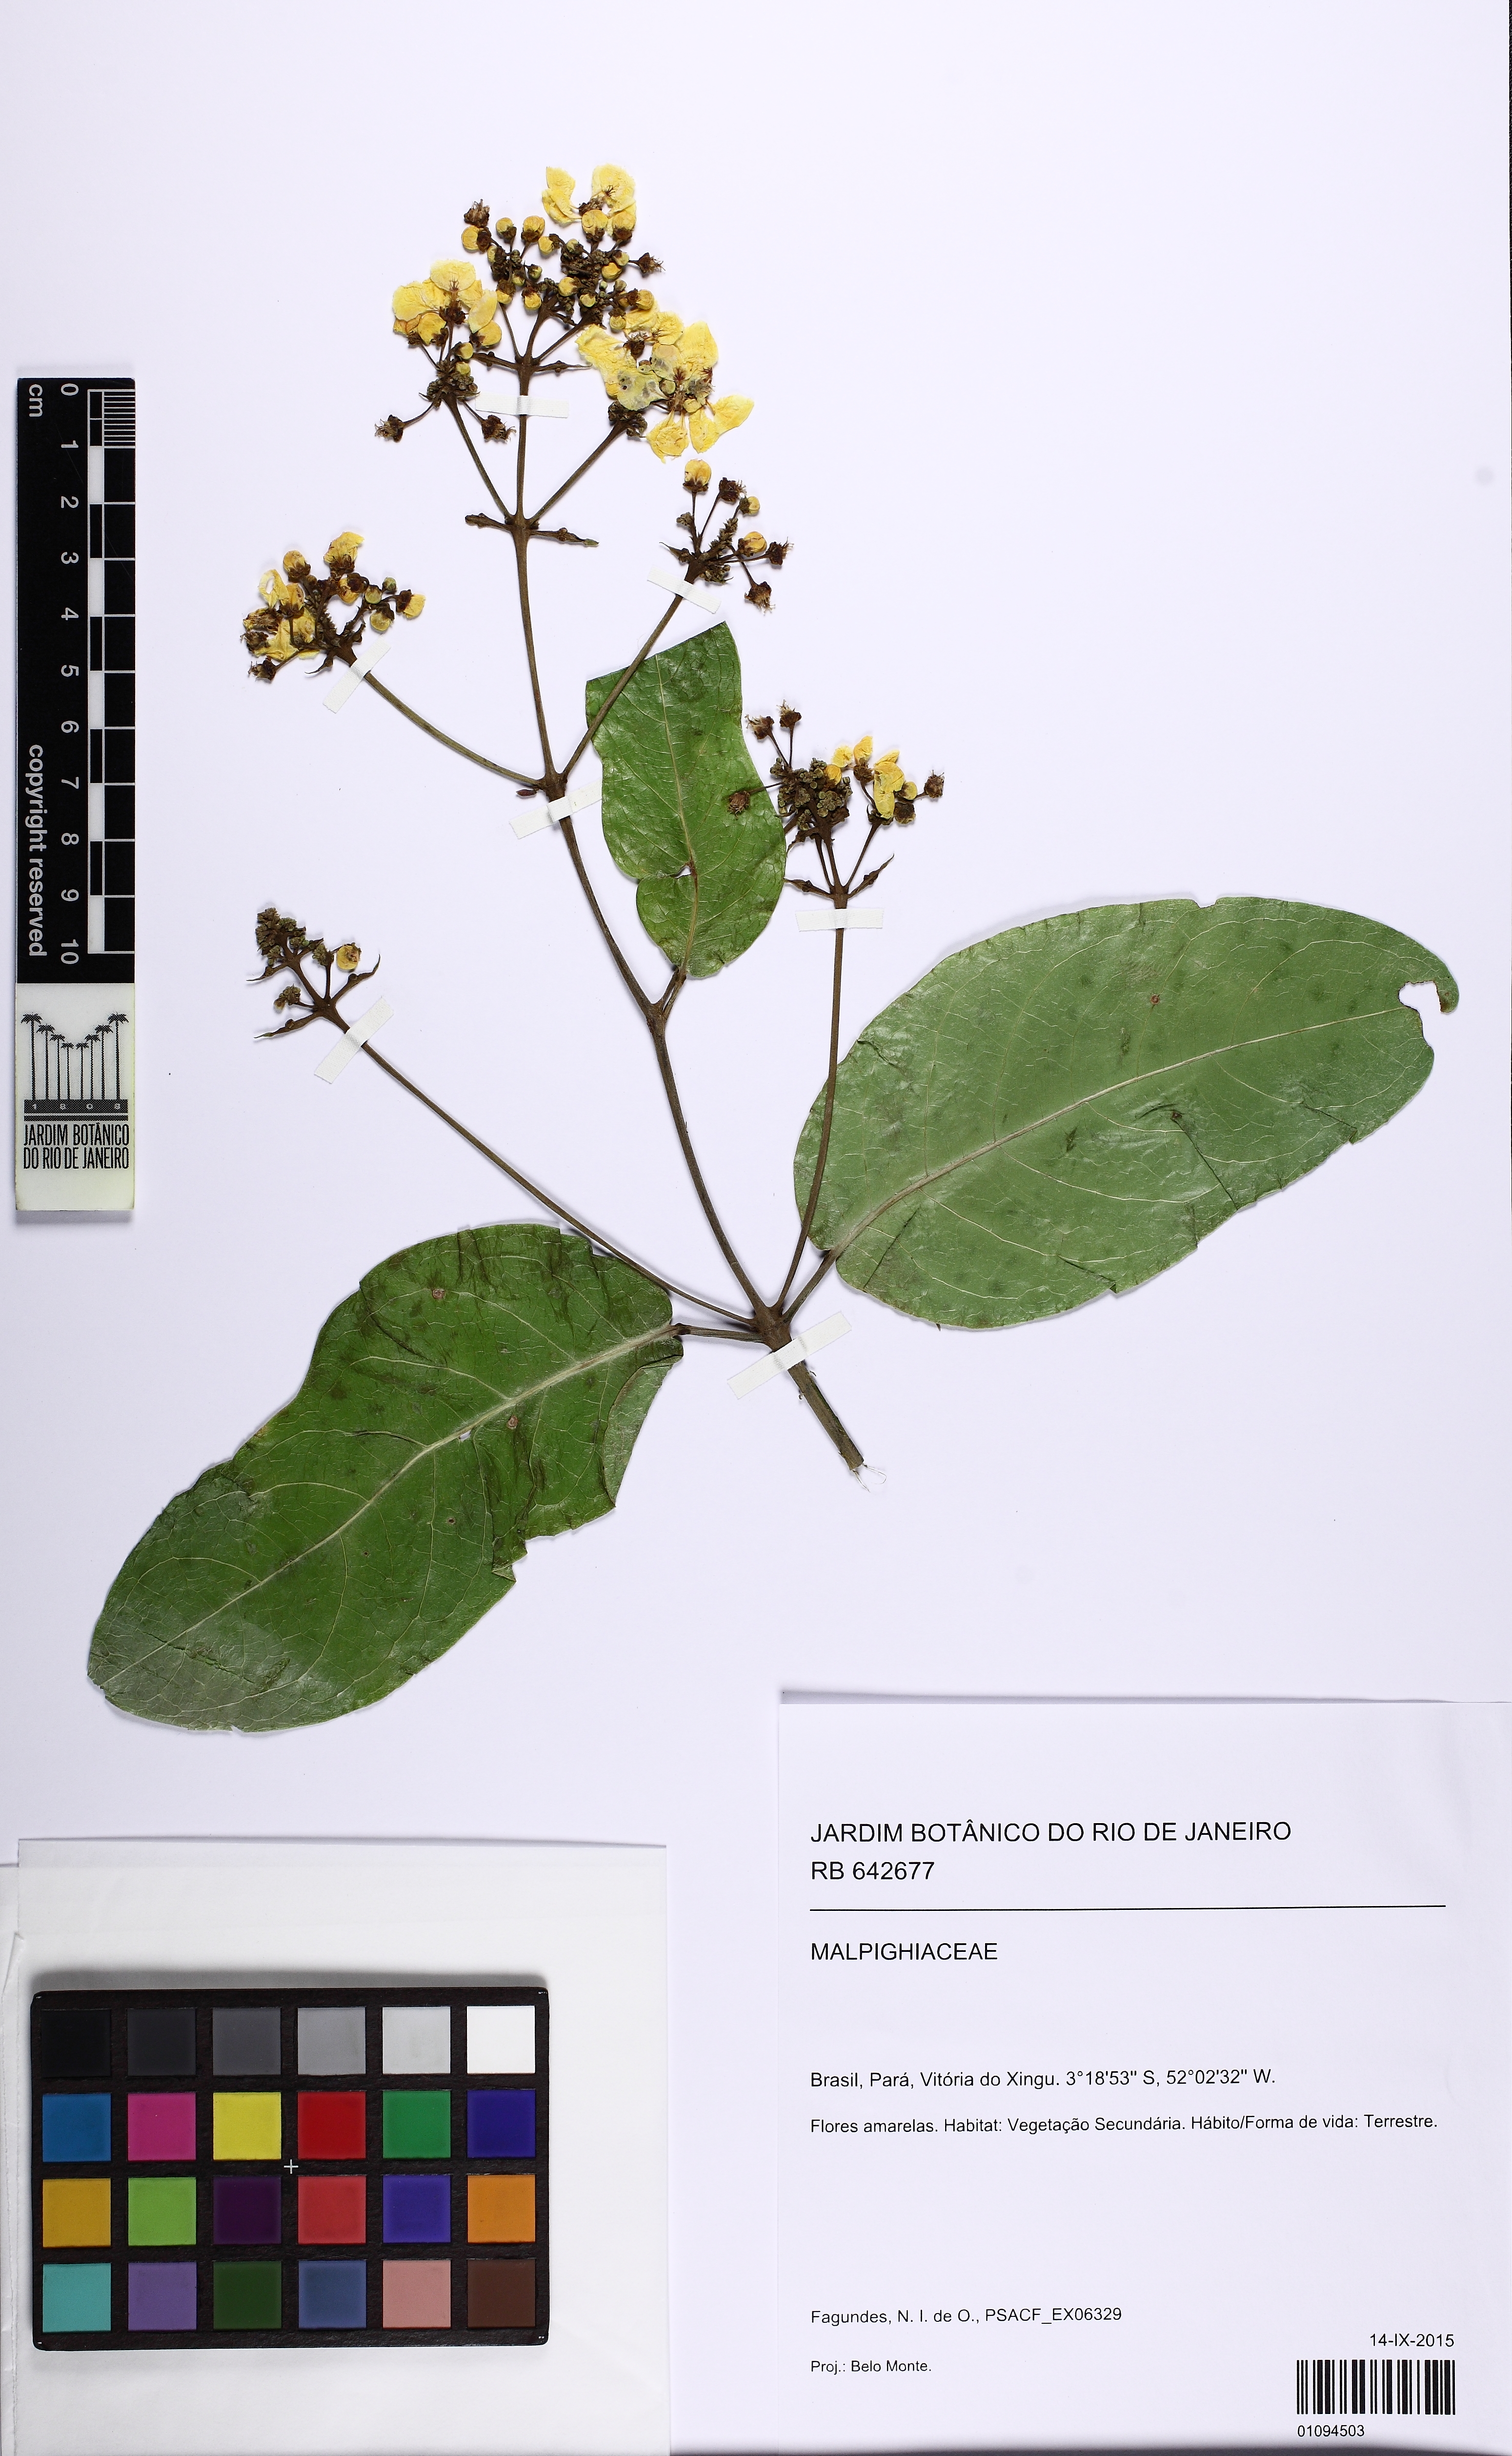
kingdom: Plantae
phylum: Tracheophyta
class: Magnoliopsida
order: Malpighiales
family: Malpighiaceae
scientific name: Malpighiaceae
